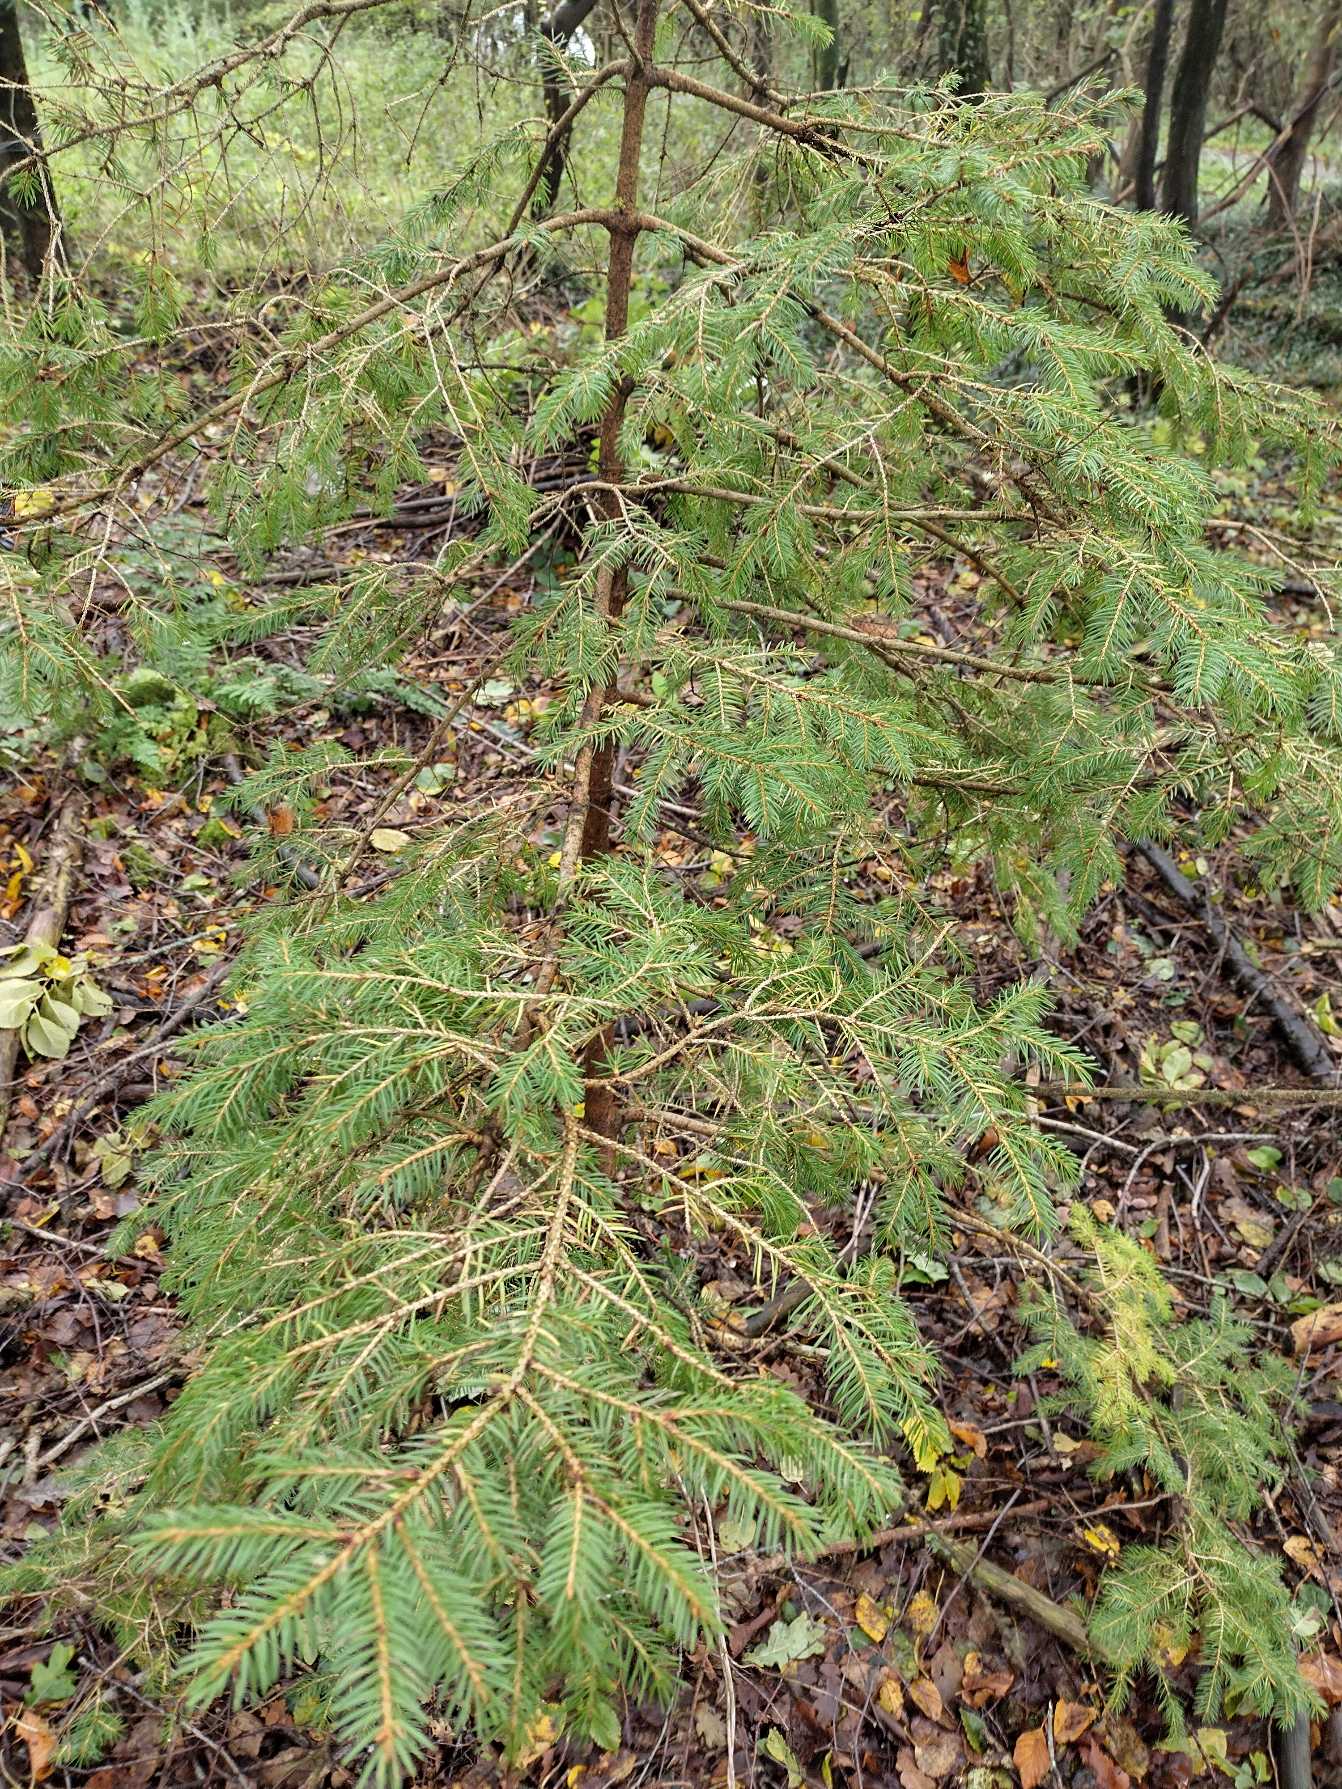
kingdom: Plantae
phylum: Tracheophyta
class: Pinopsida
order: Pinales
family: Pinaceae
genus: Picea
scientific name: Picea abies
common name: Rød-gran
